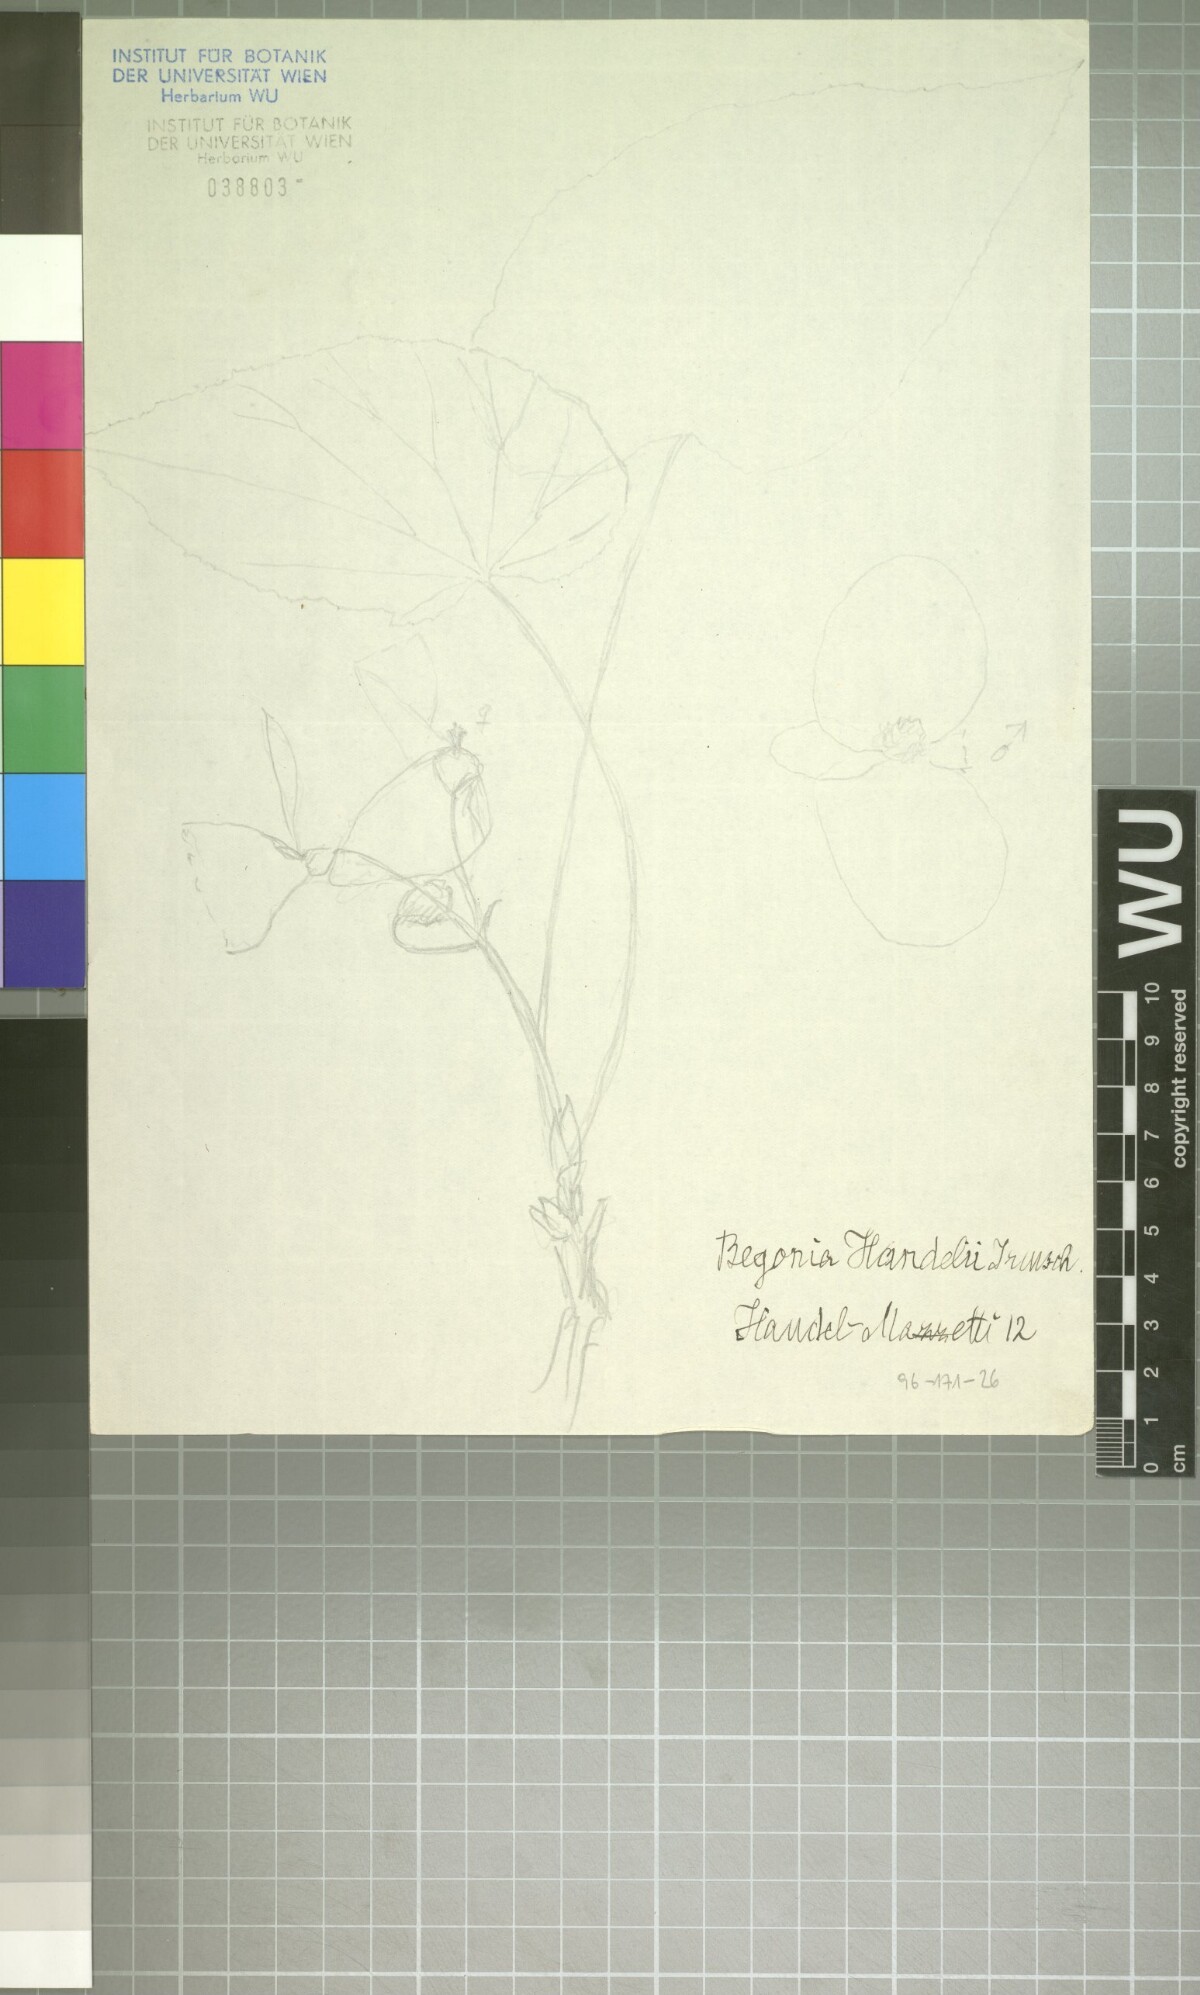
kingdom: Plantae
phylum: Tracheophyta
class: Magnoliopsida
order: Cucurbitales
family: Begoniaceae
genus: Begonia
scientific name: Begonia handelii
